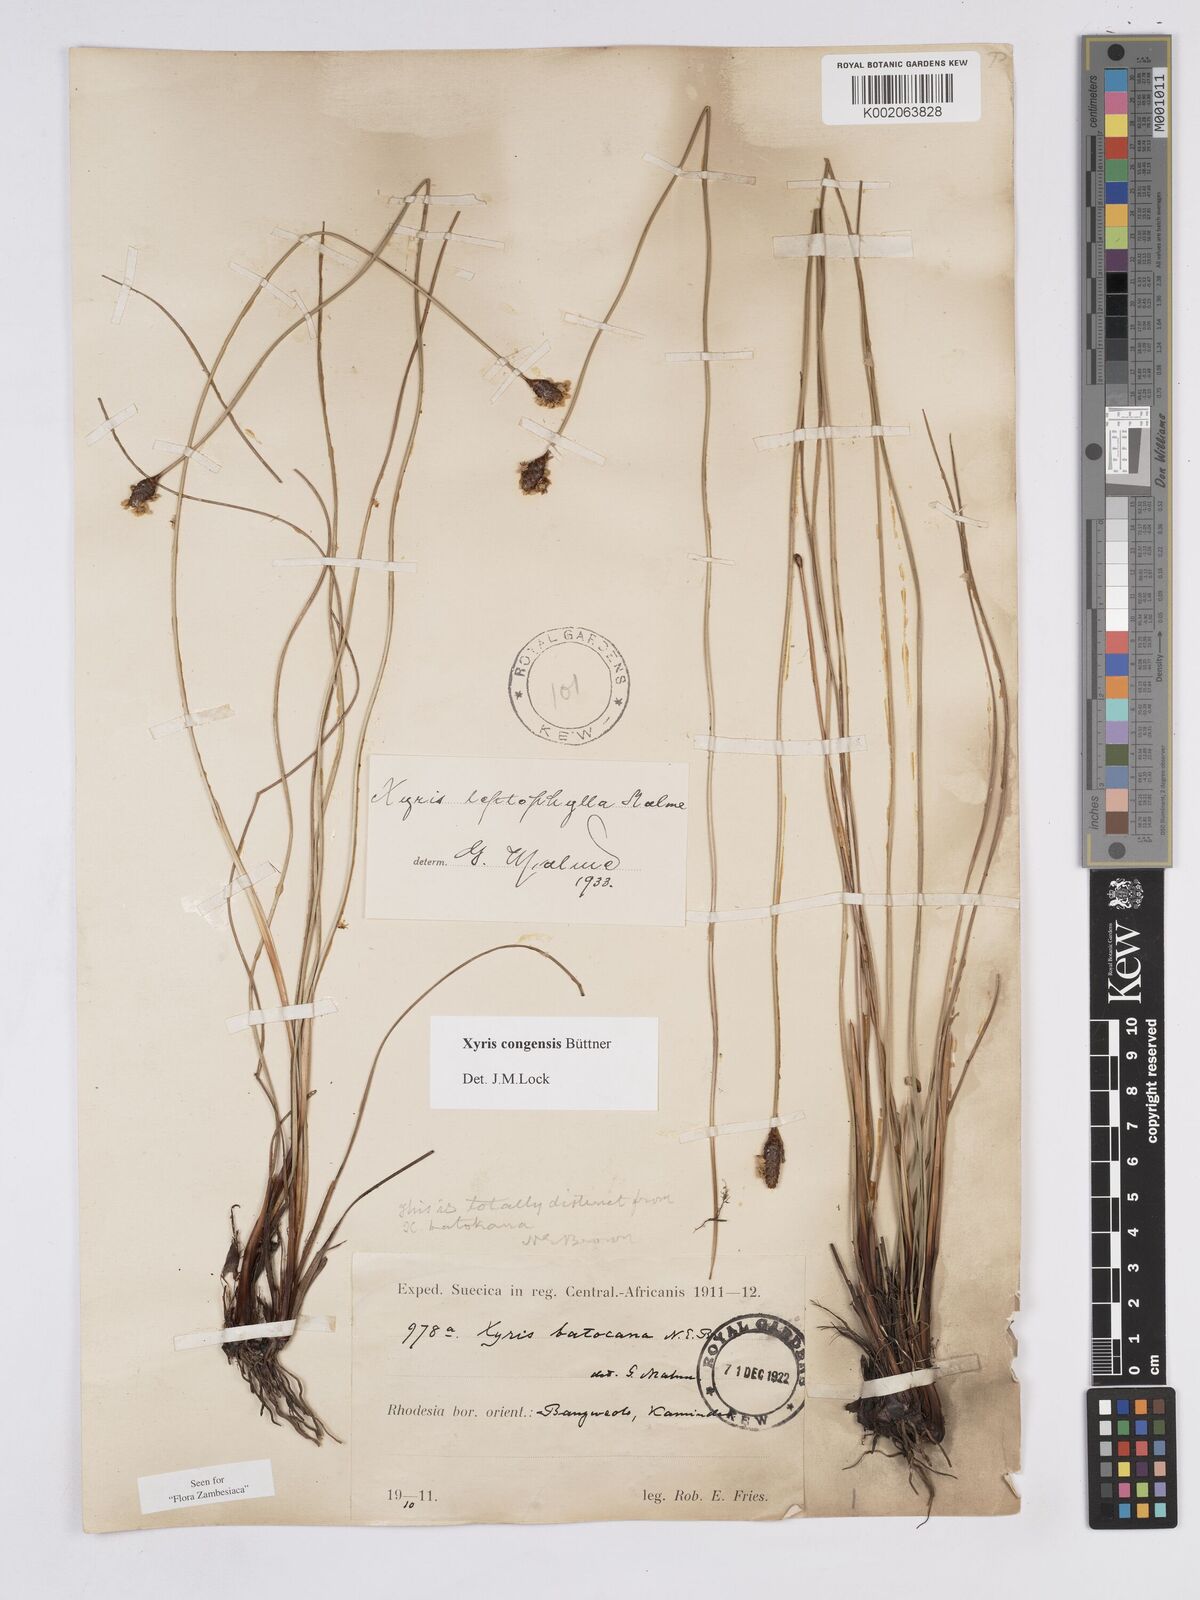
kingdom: Plantae
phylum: Tracheophyta
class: Liliopsida
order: Poales
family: Xyridaceae
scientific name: Xyridaceae
